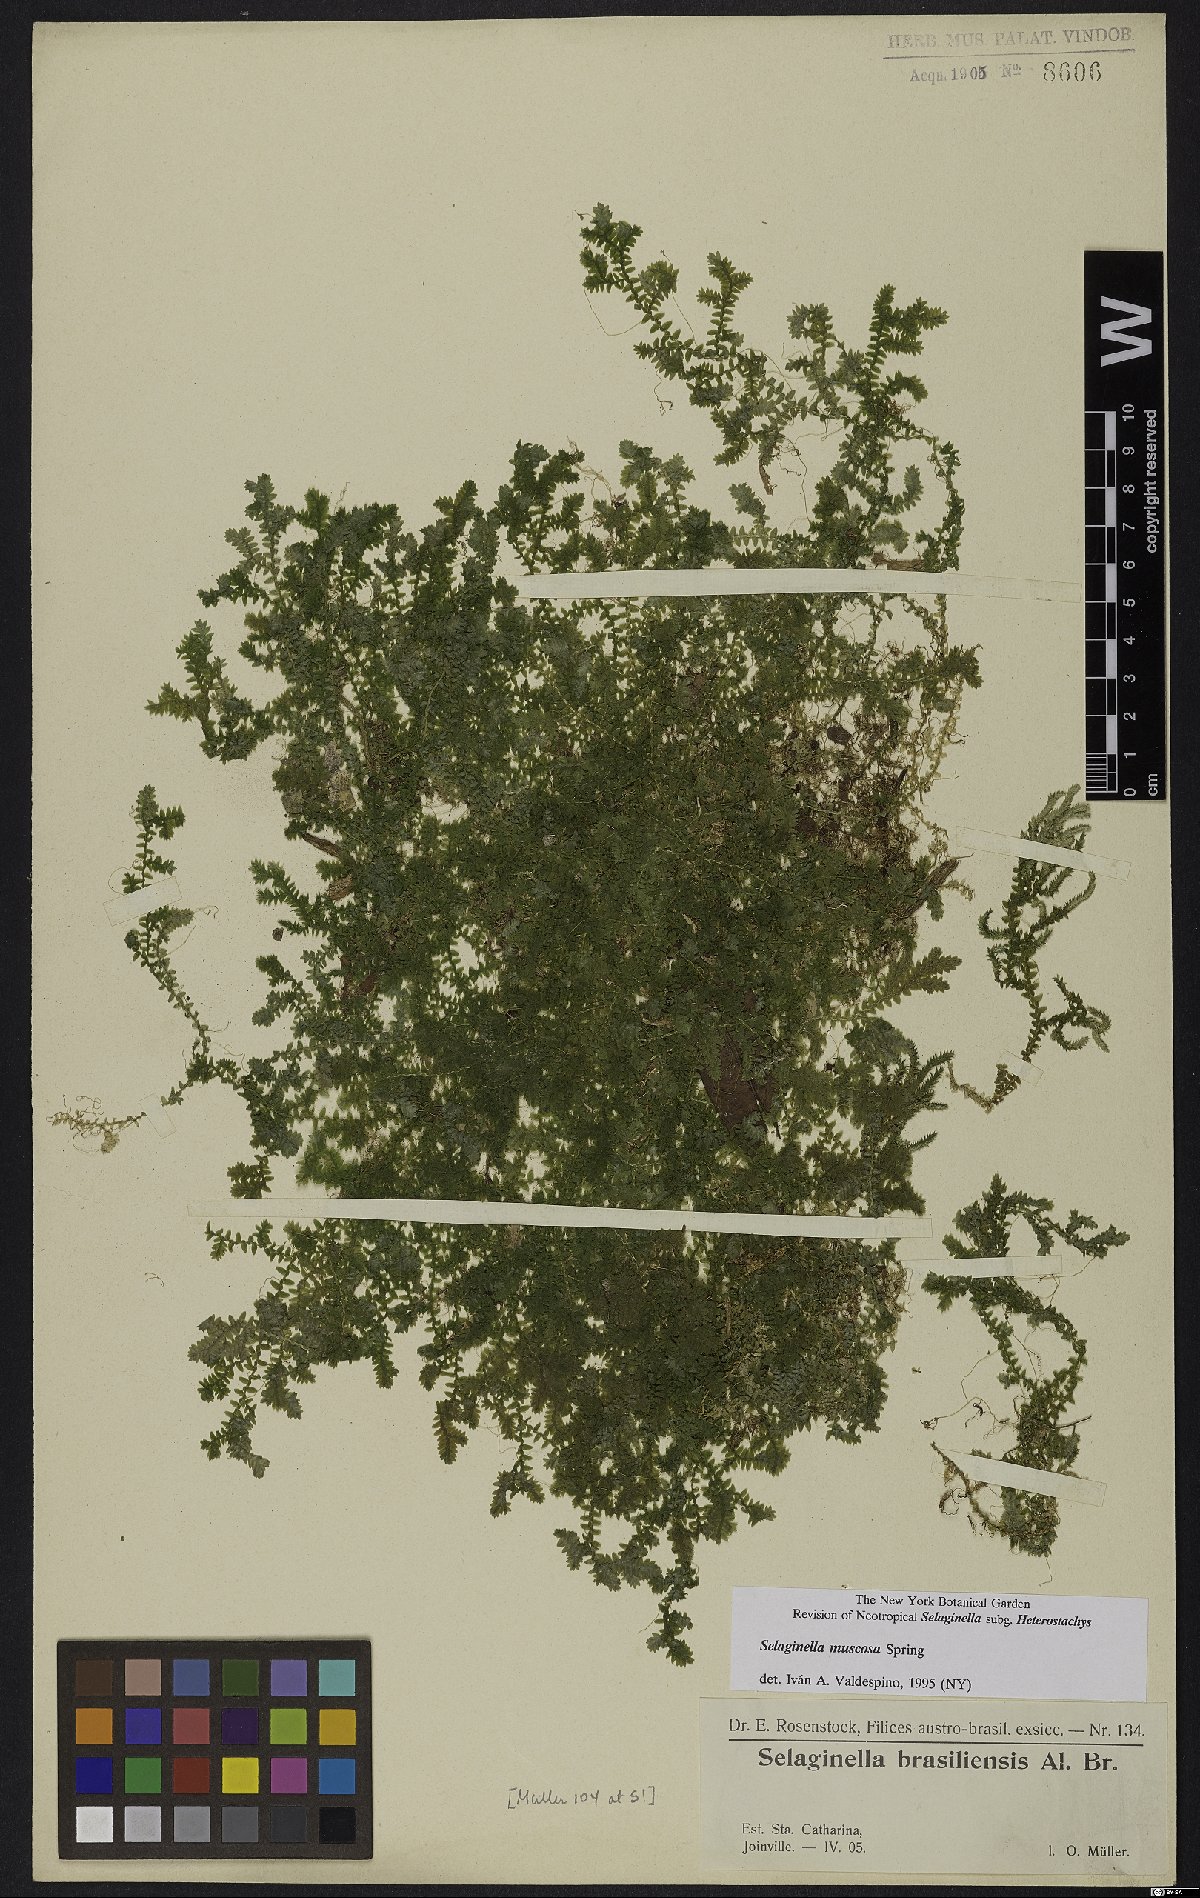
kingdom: Plantae
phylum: Tracheophyta
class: Lycopodiopsida
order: Selaginellales
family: Selaginellaceae
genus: Selaginella
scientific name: Selaginella muscosa
